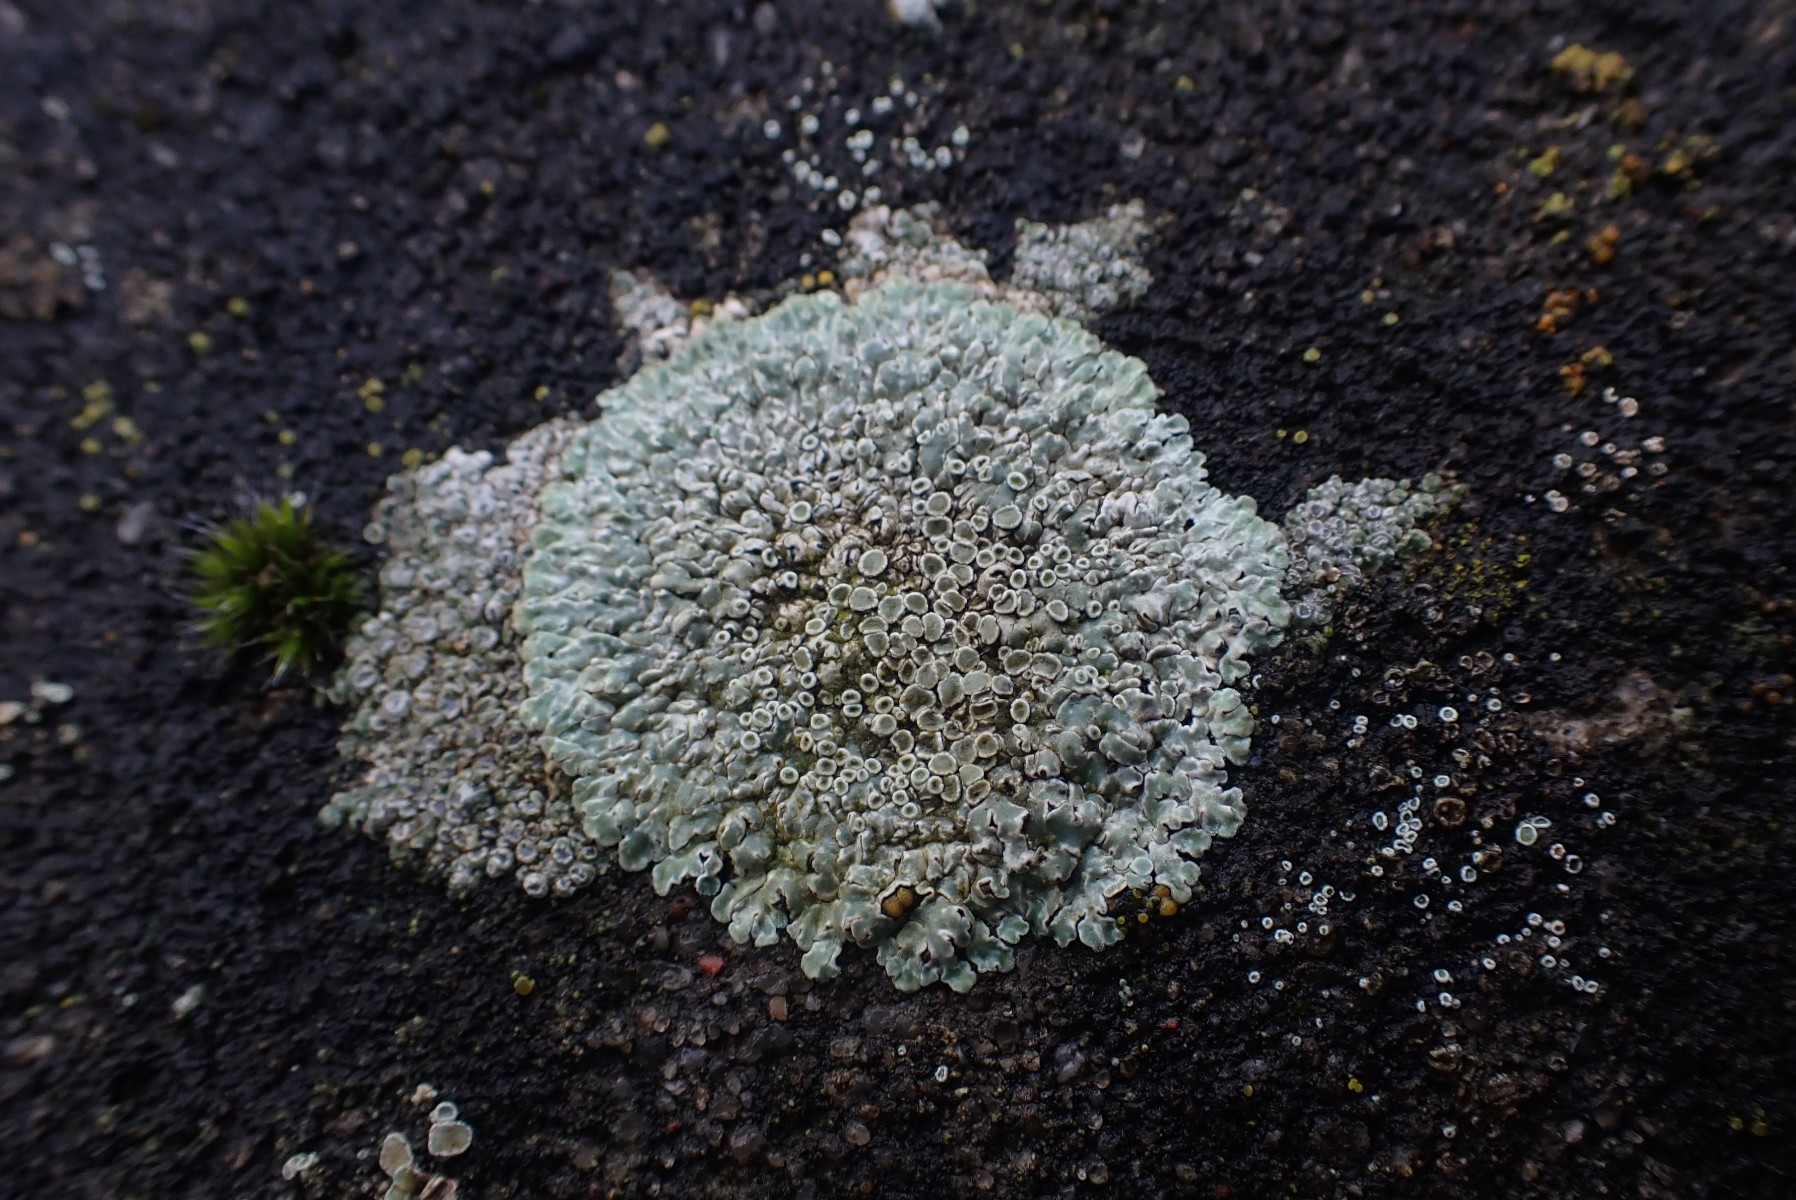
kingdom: Fungi
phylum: Ascomycota
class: Lecanoromycetes
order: Lecanorales
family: Lecanoraceae
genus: Protoparmeliopsis
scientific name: Protoparmeliopsis muralis
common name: randfliget kantskivelav
